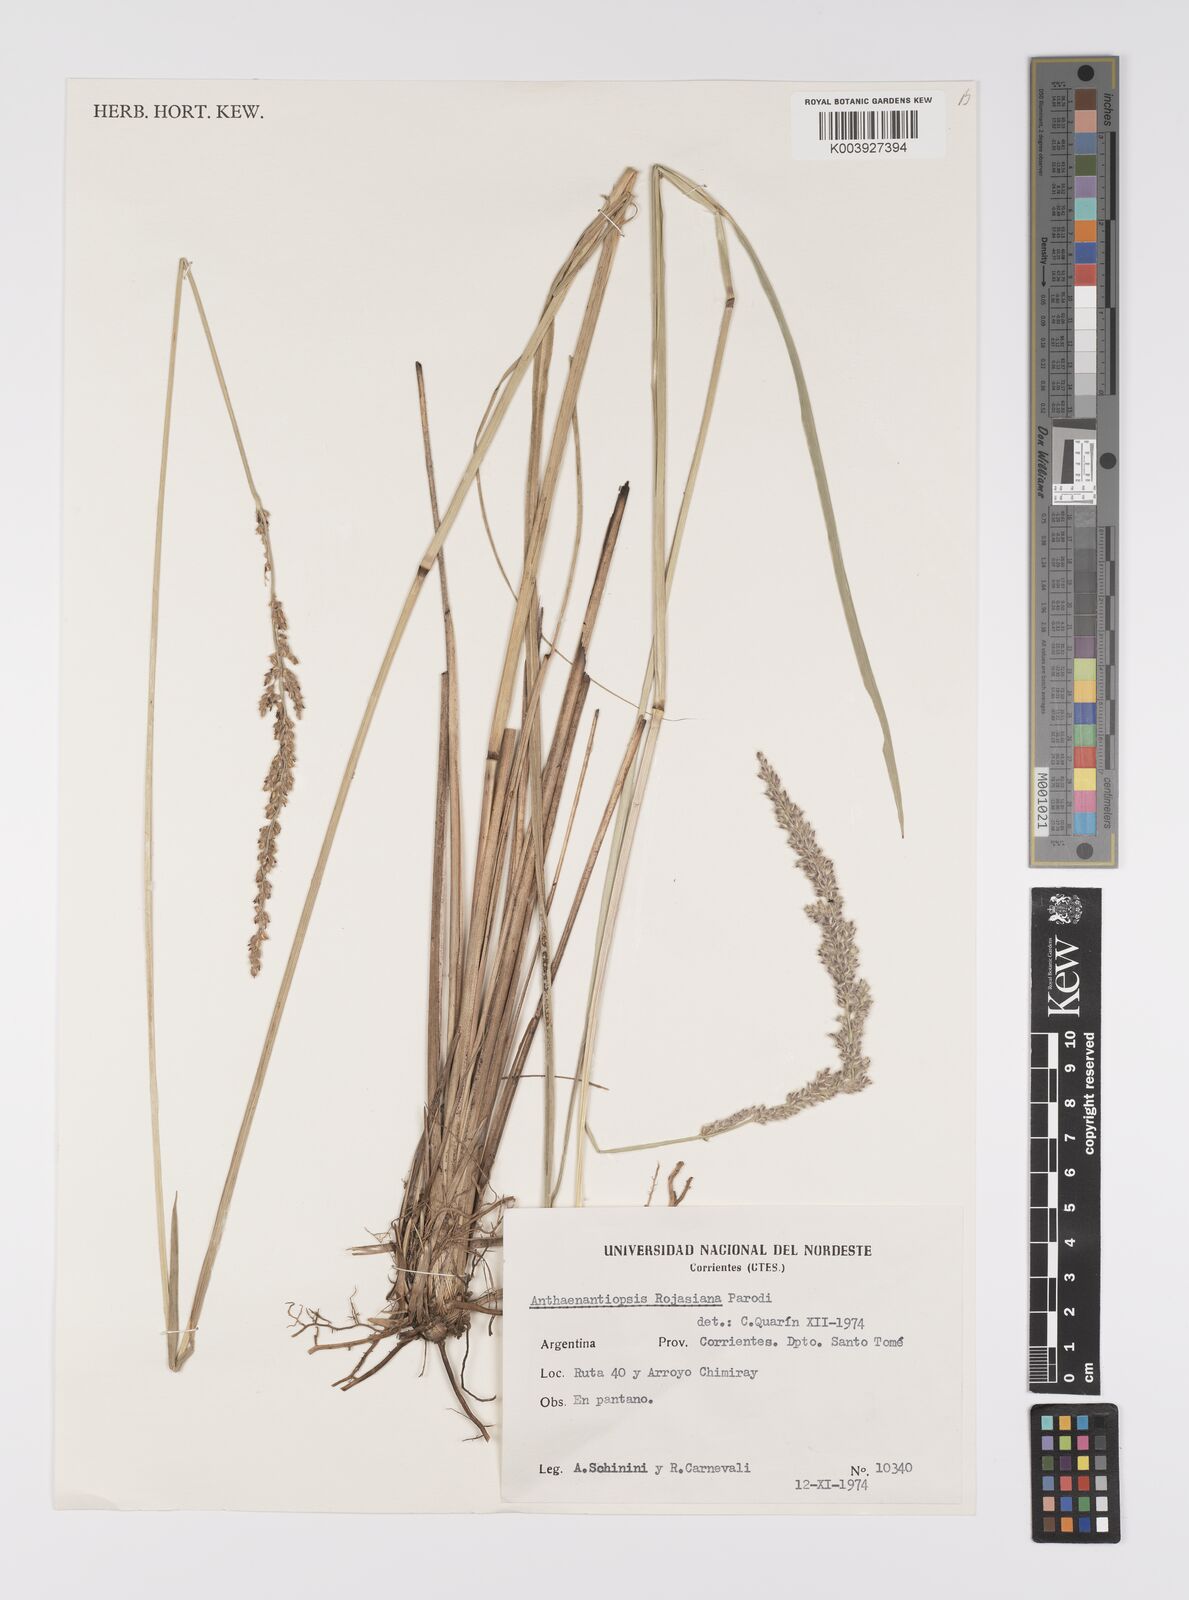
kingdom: Plantae
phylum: Tracheophyta
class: Liliopsida
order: Poales
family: Poaceae
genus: Anthaenantiopsis
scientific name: Anthaenantiopsis rojasiana
